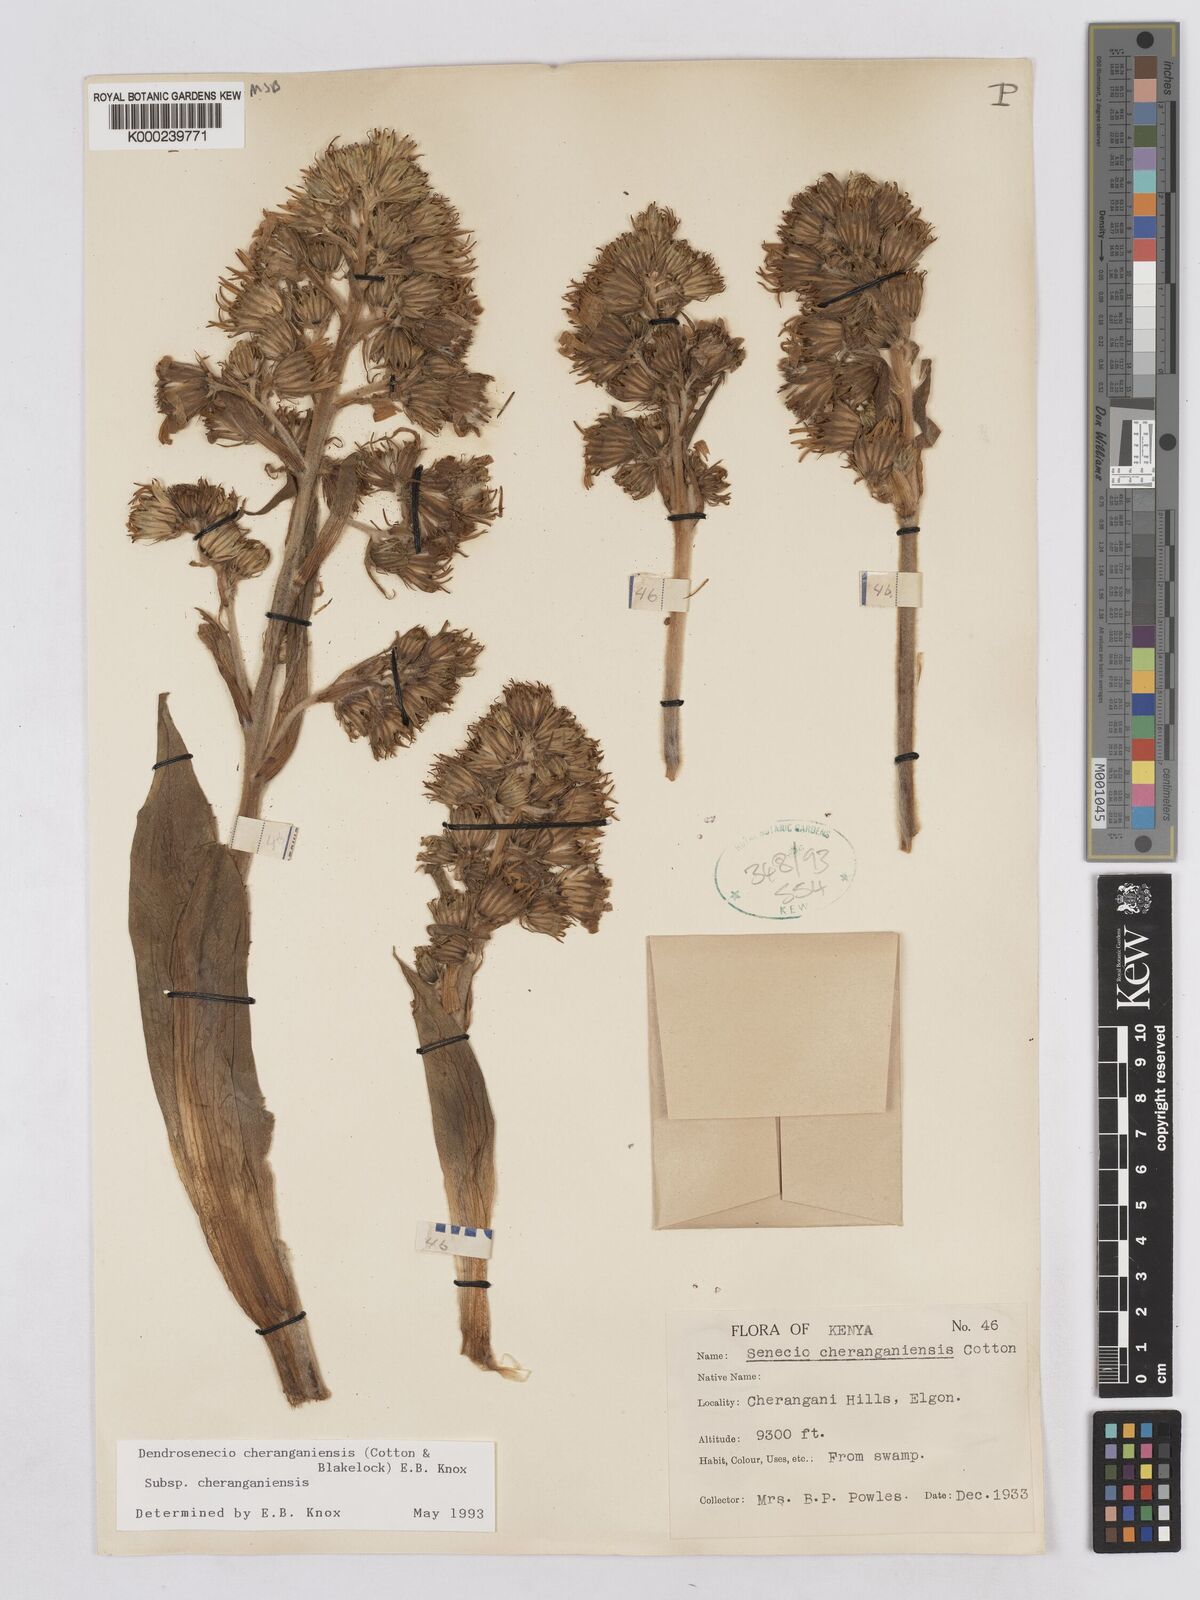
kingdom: Plantae
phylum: Tracheophyta
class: Magnoliopsida
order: Asterales
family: Asteraceae
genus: Dendrosenecio
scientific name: Dendrosenecio cheranganiensis
